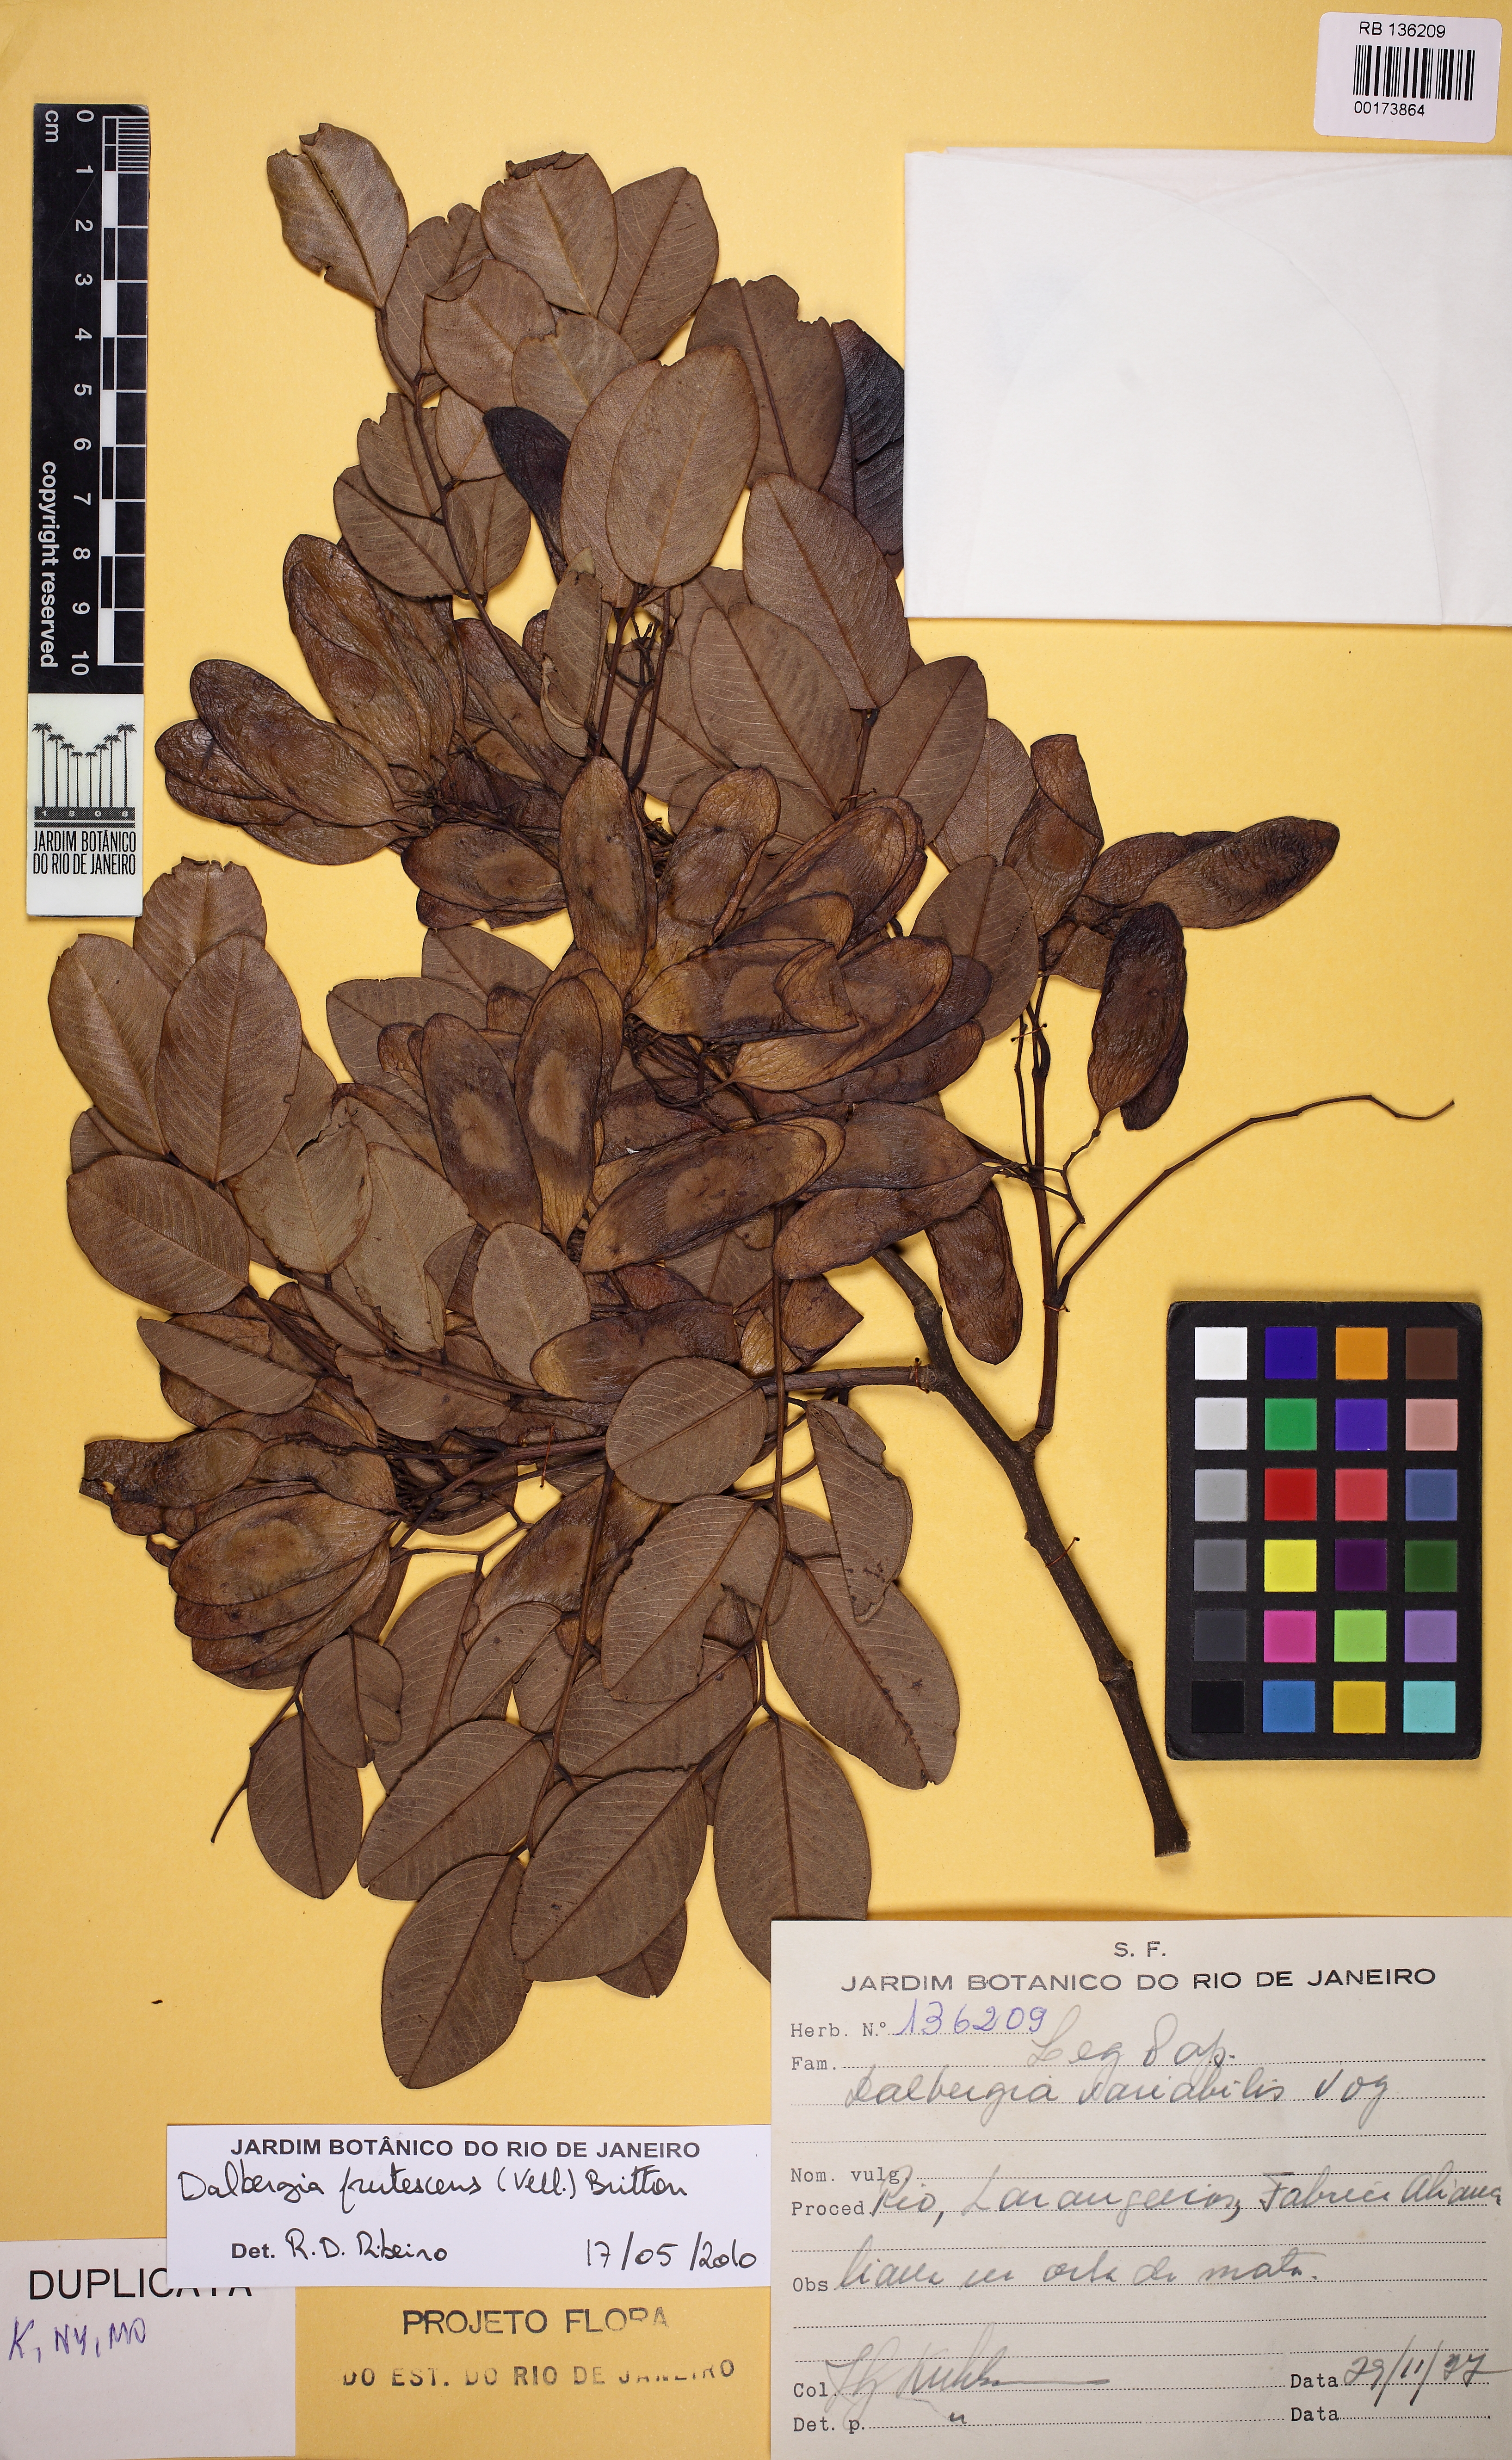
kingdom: Plantae
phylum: Tracheophyta
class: Magnoliopsida
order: Fabales
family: Fabaceae
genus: Dalbergia
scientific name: Dalbergia frutescens
